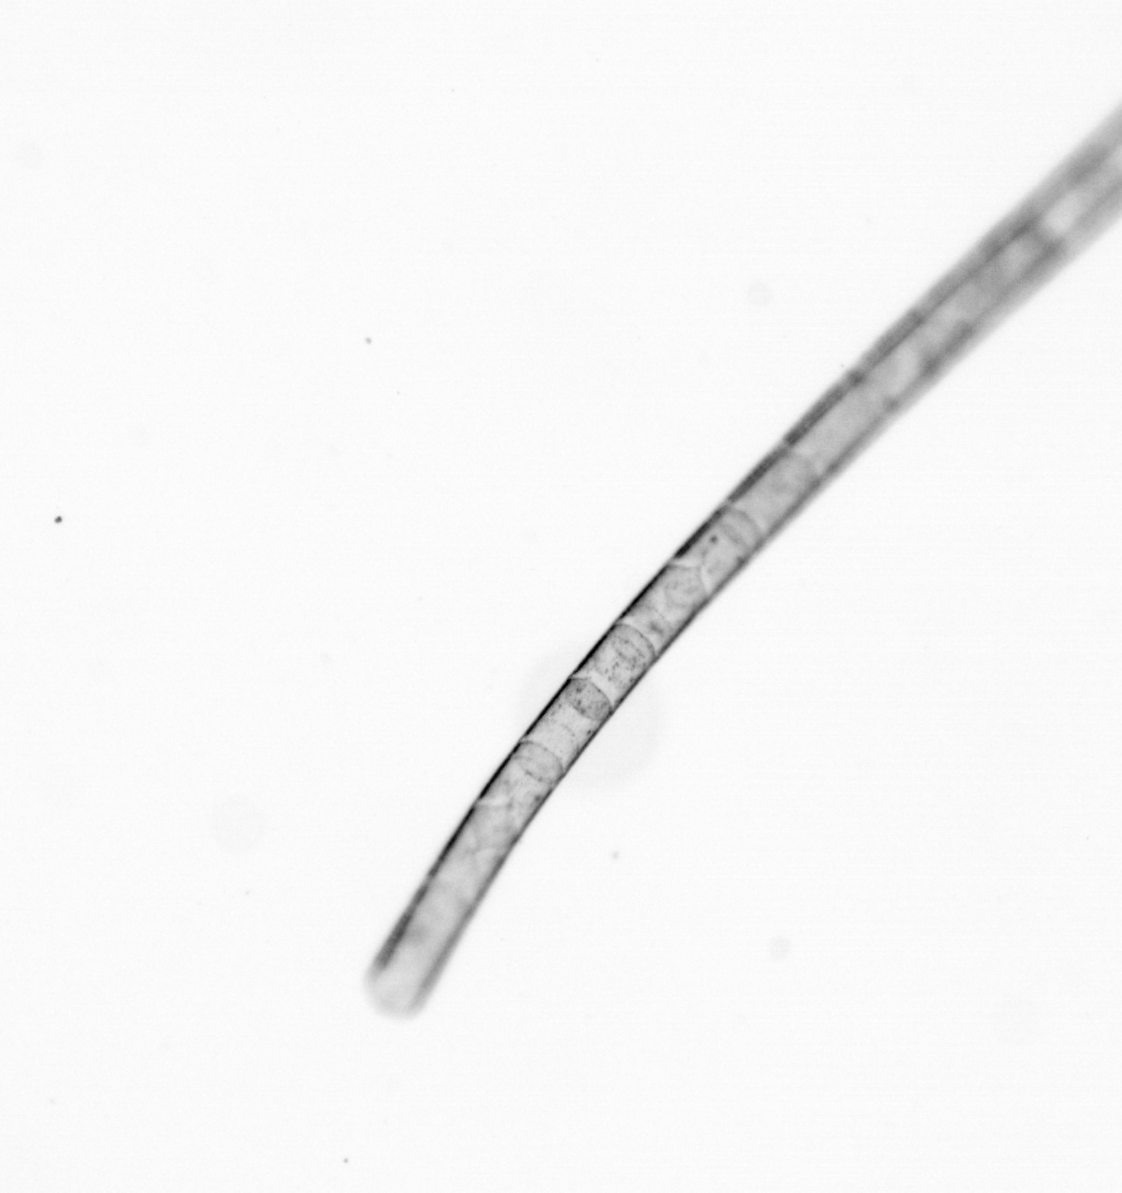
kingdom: Chromista
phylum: Ochrophyta
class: Bacillariophyceae
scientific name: Bacillariophyceae
